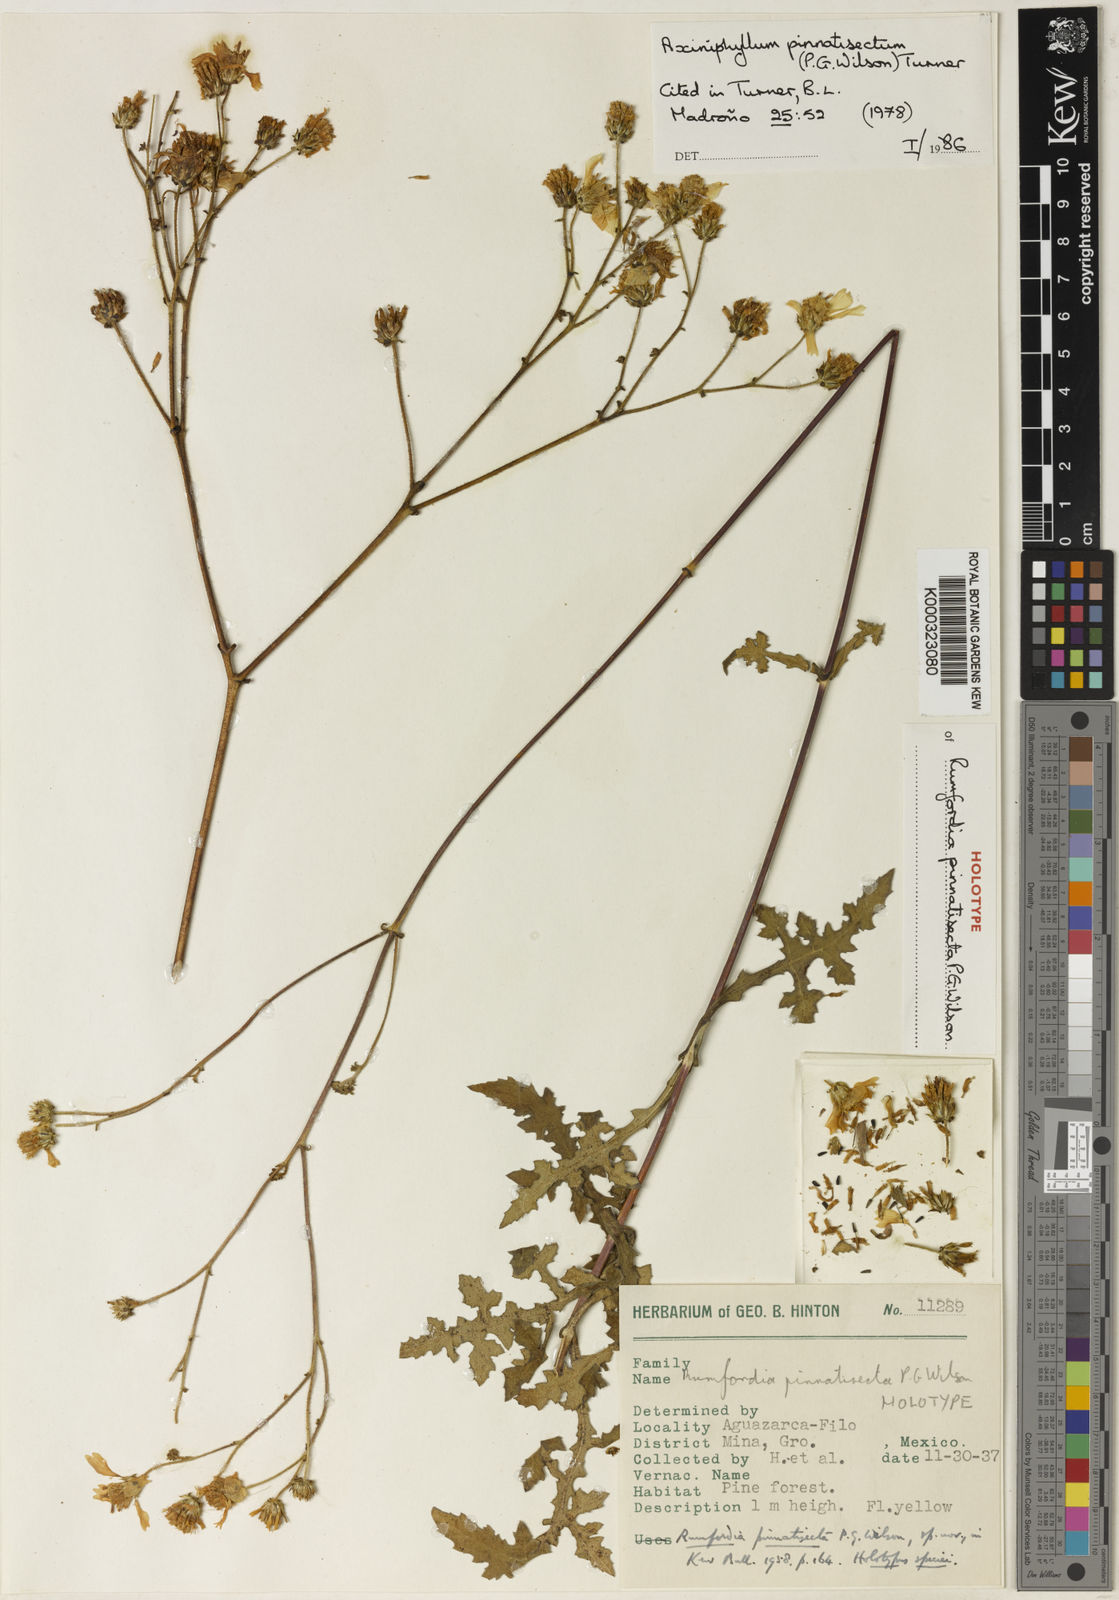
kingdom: Plantae
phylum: Tracheophyta
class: Magnoliopsida
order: Asterales
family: Asteraceae
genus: Axiniphyllum
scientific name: Axiniphyllum pinnatisectum
